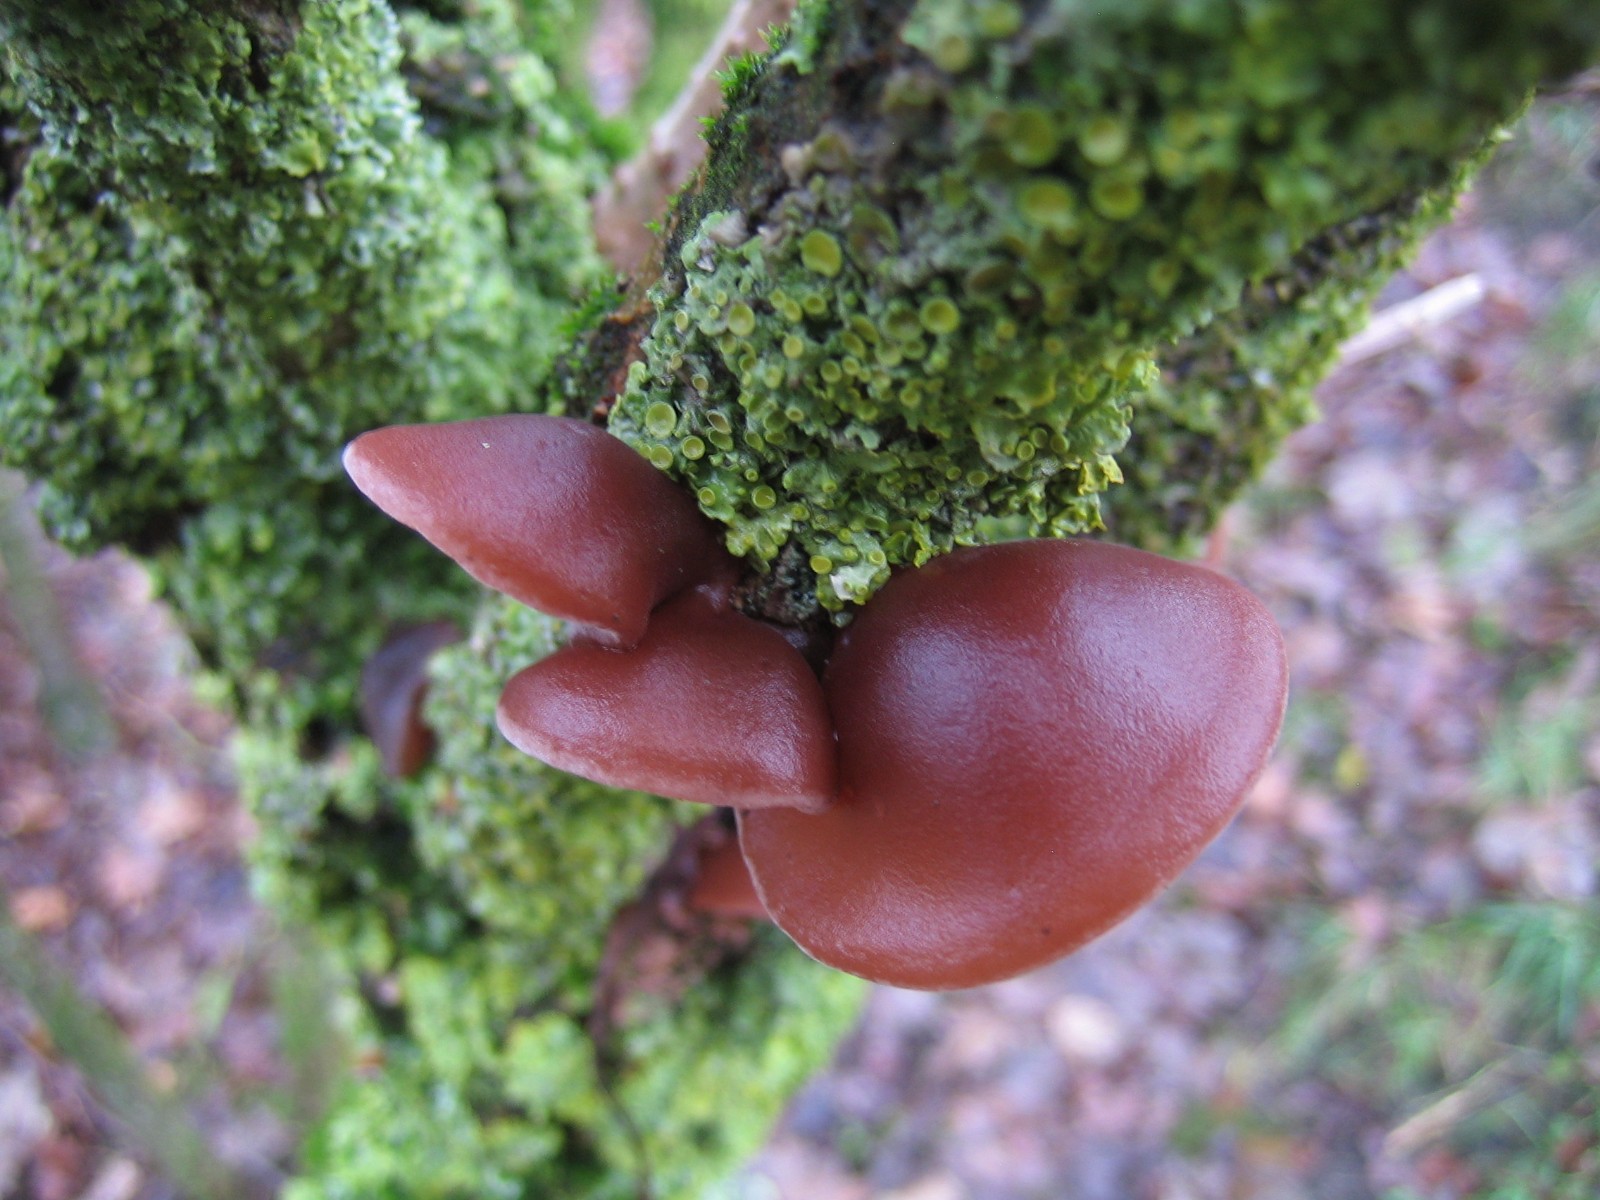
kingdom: Fungi
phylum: Basidiomycota
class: Agaricomycetes
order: Auriculariales
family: Auriculariaceae
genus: Auricularia
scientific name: Auricularia auricula-judae
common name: almindelig judasøre
